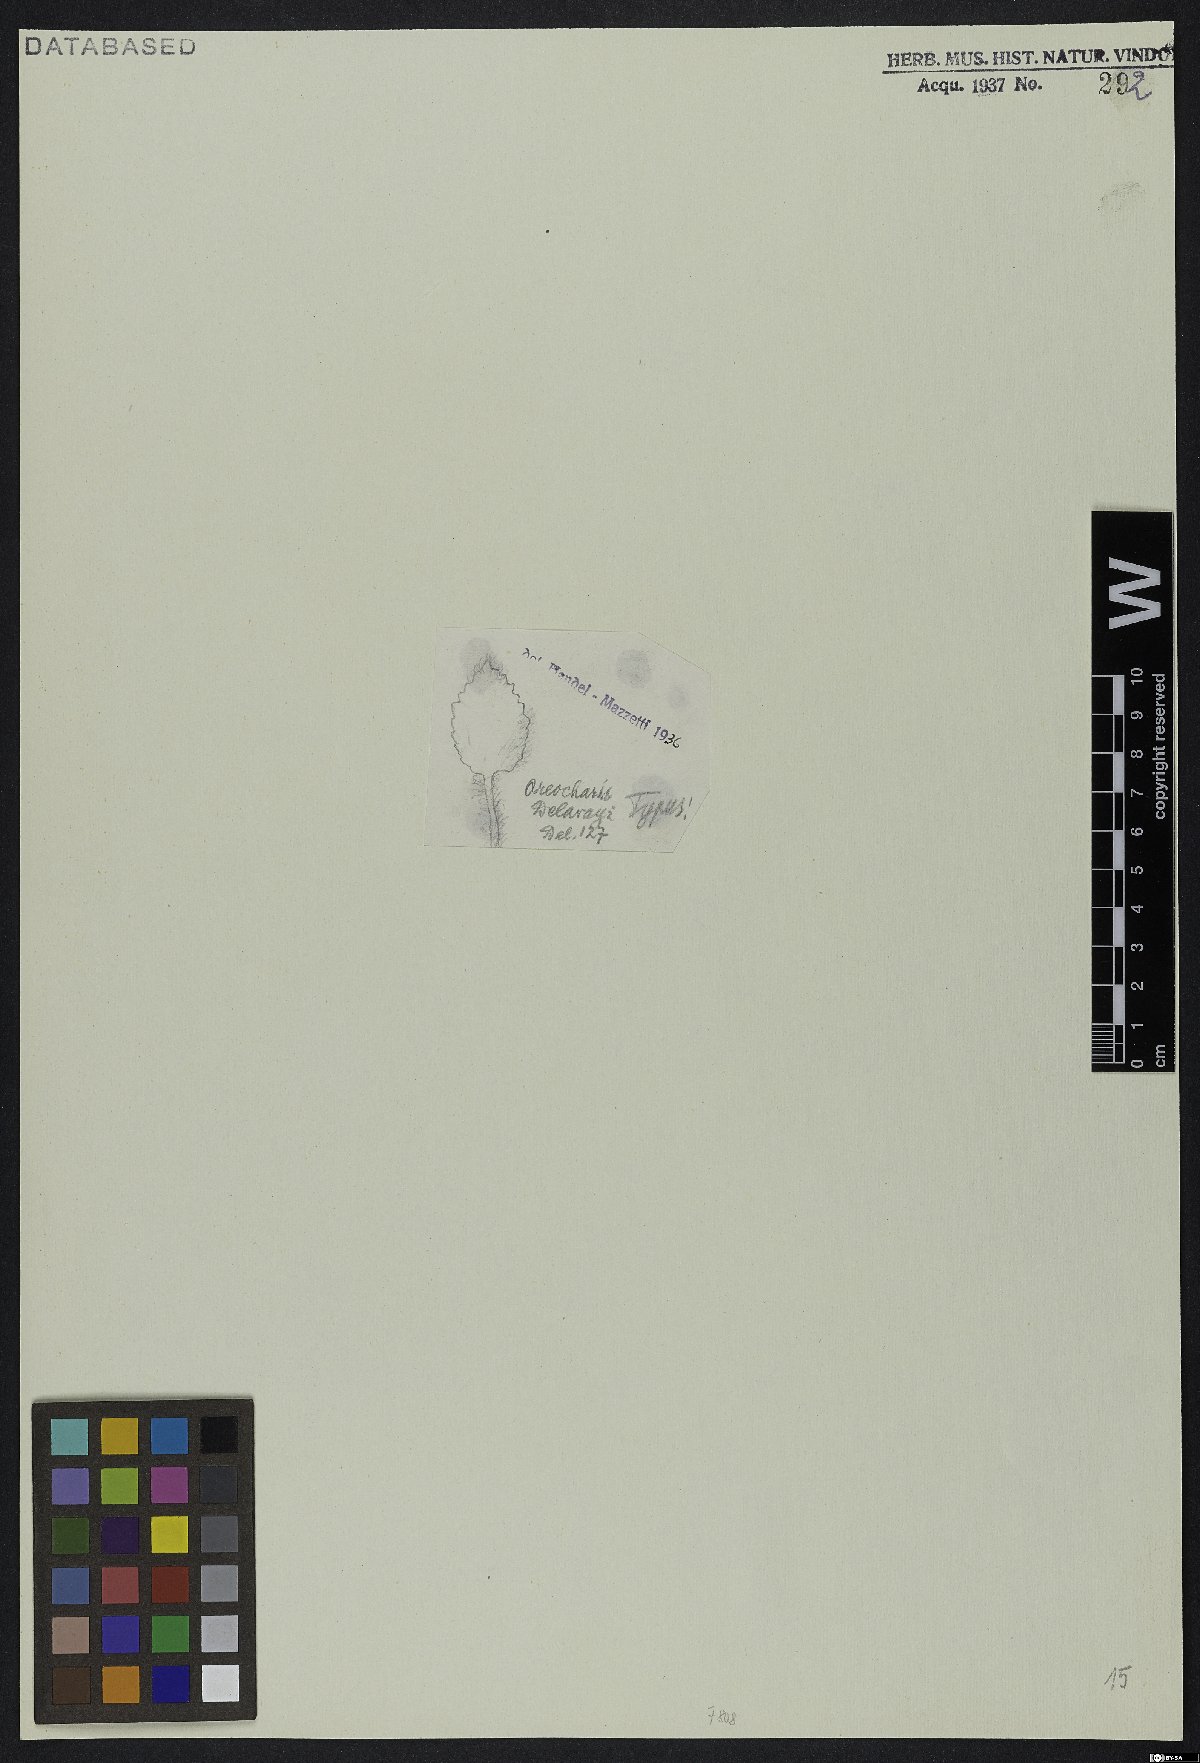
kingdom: Plantae
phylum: Tracheophyta
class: Magnoliopsida
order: Lamiales
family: Gesneriaceae
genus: Oreocharis
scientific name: Oreocharis delavayi
